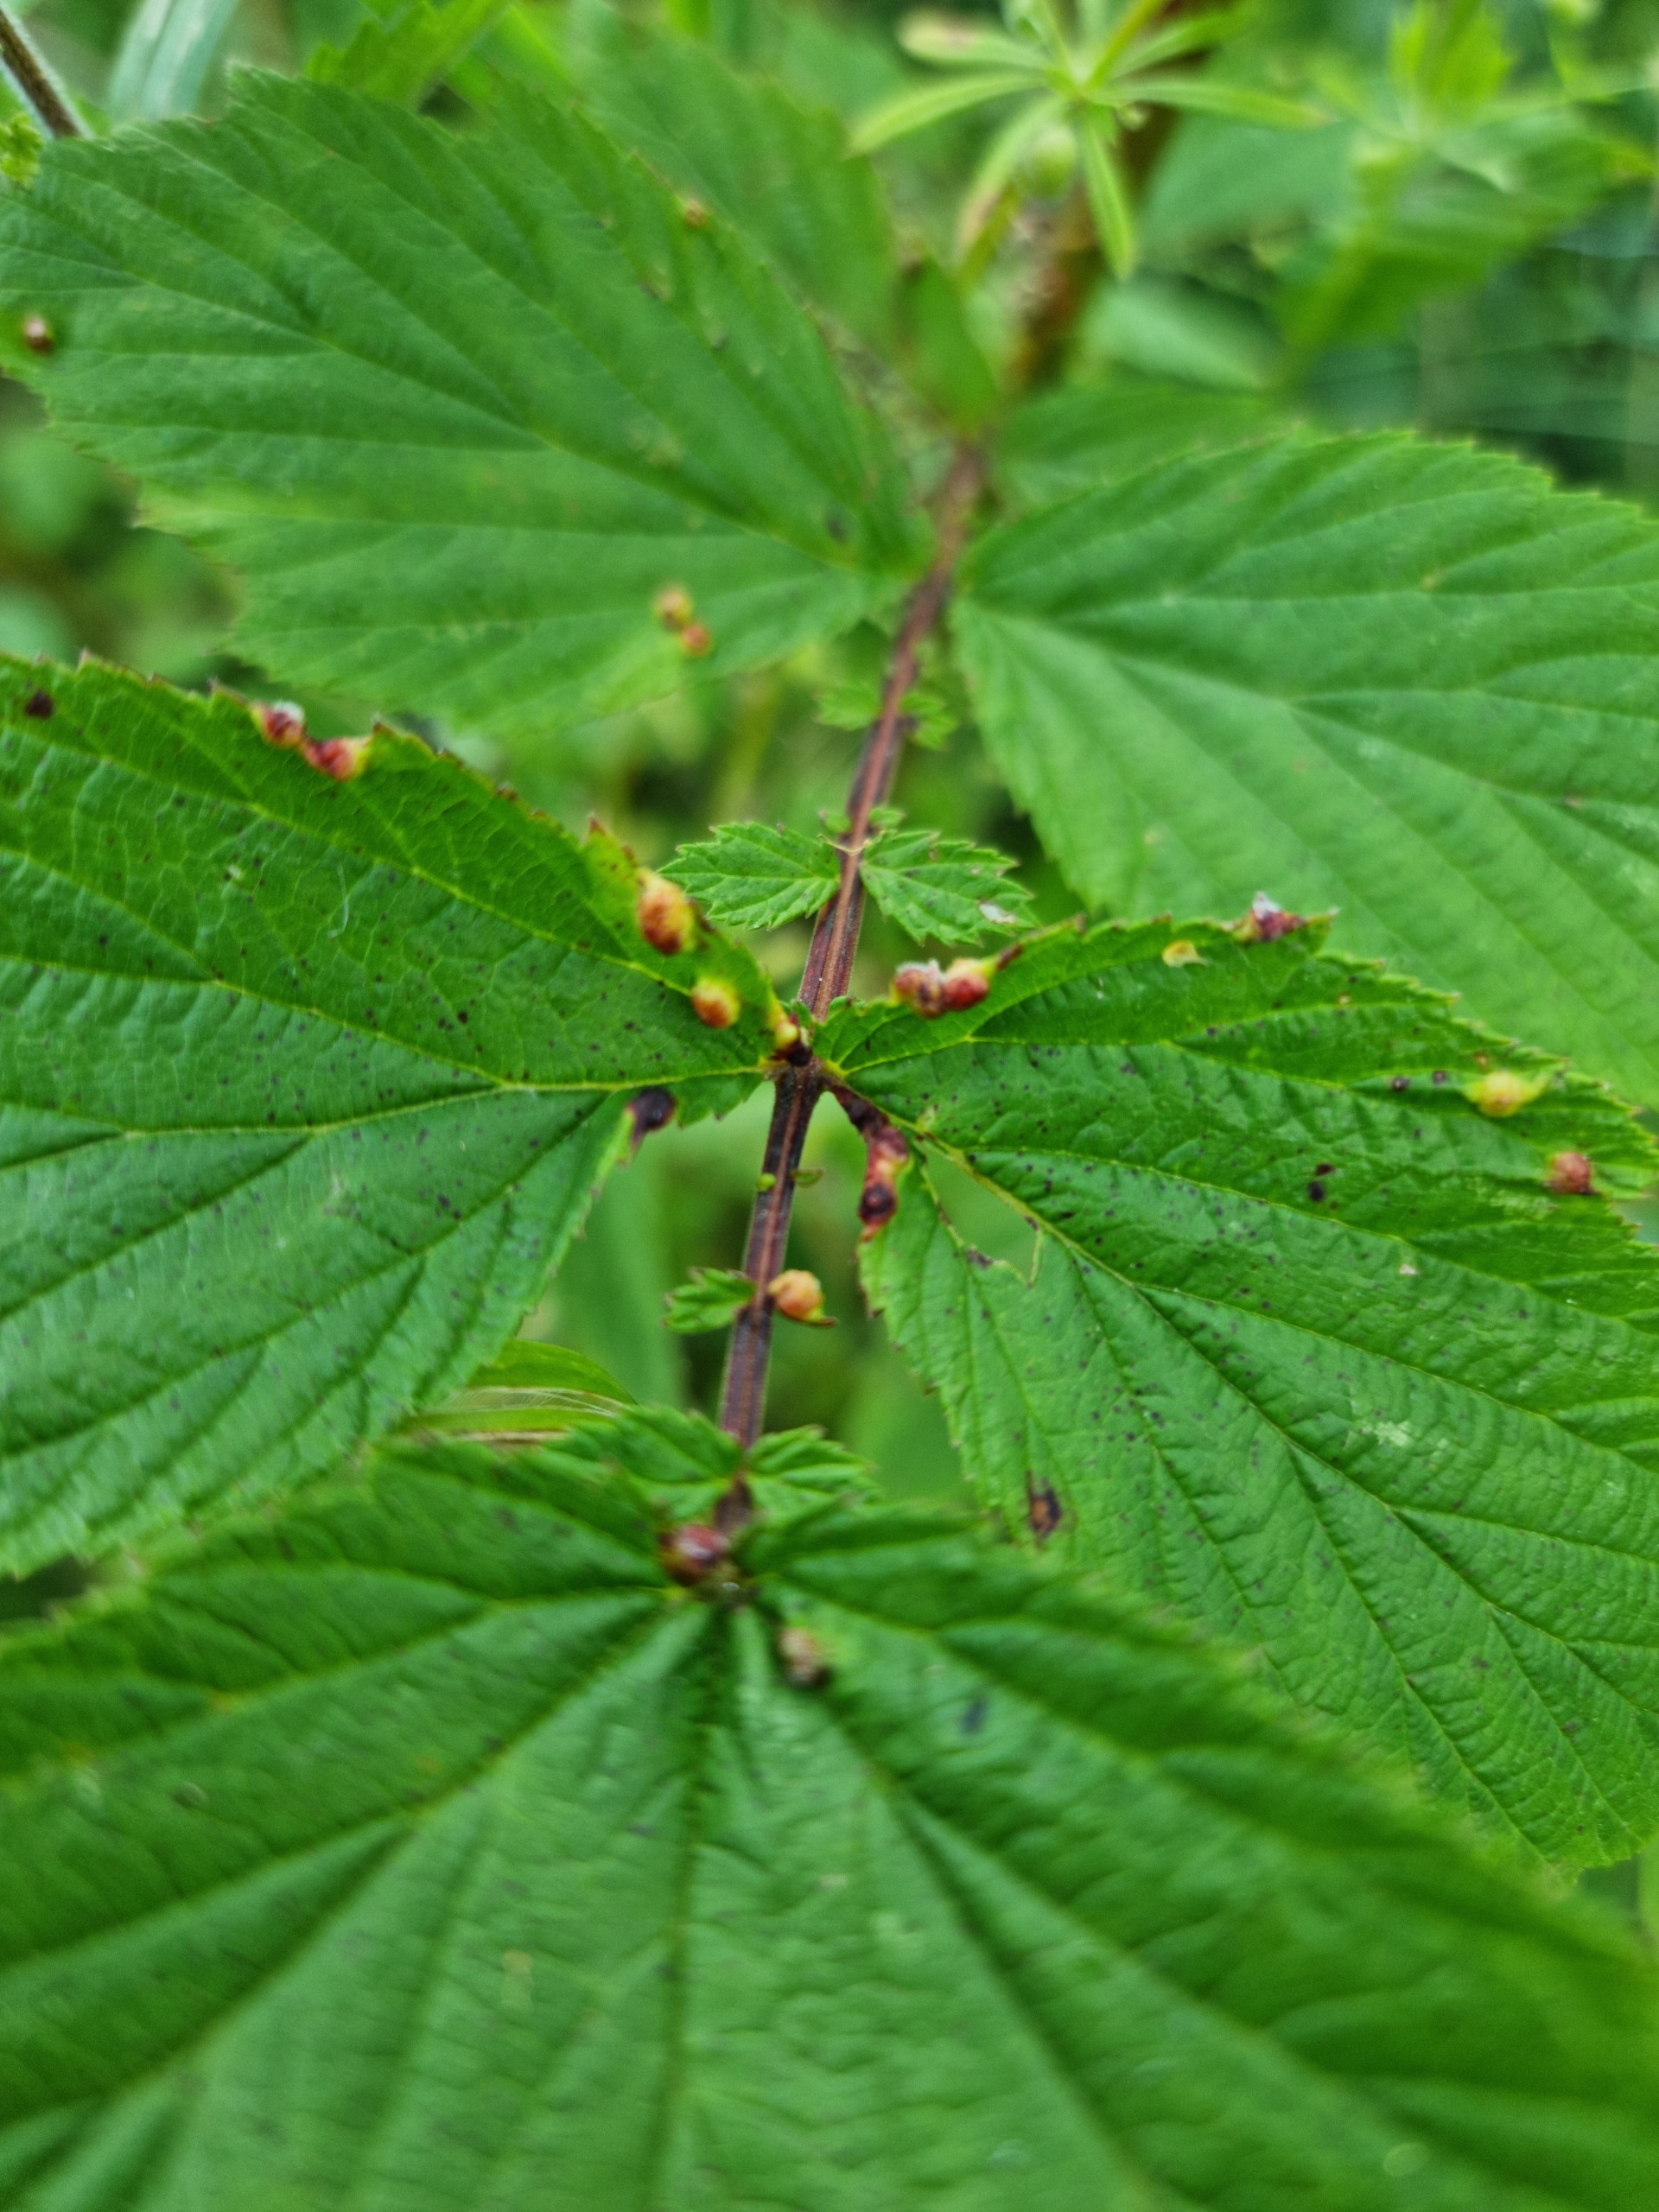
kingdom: Animalia
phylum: Arthropoda
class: Insecta
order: Diptera
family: Cecidomyiidae
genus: Dasineura
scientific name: Dasineura ulmaria
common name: Mjødurtgalmyg
